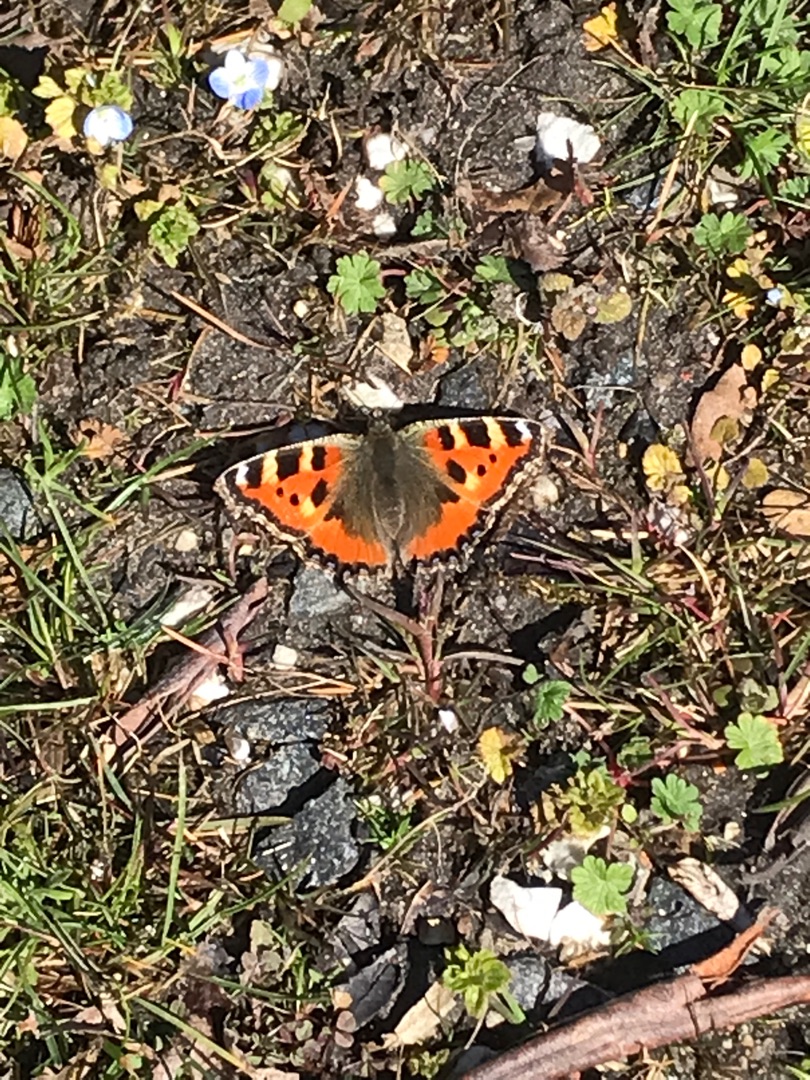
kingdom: Animalia
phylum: Arthropoda
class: Insecta
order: Lepidoptera
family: Nymphalidae
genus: Aglais
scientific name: Aglais urticae
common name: Nældens takvinge
